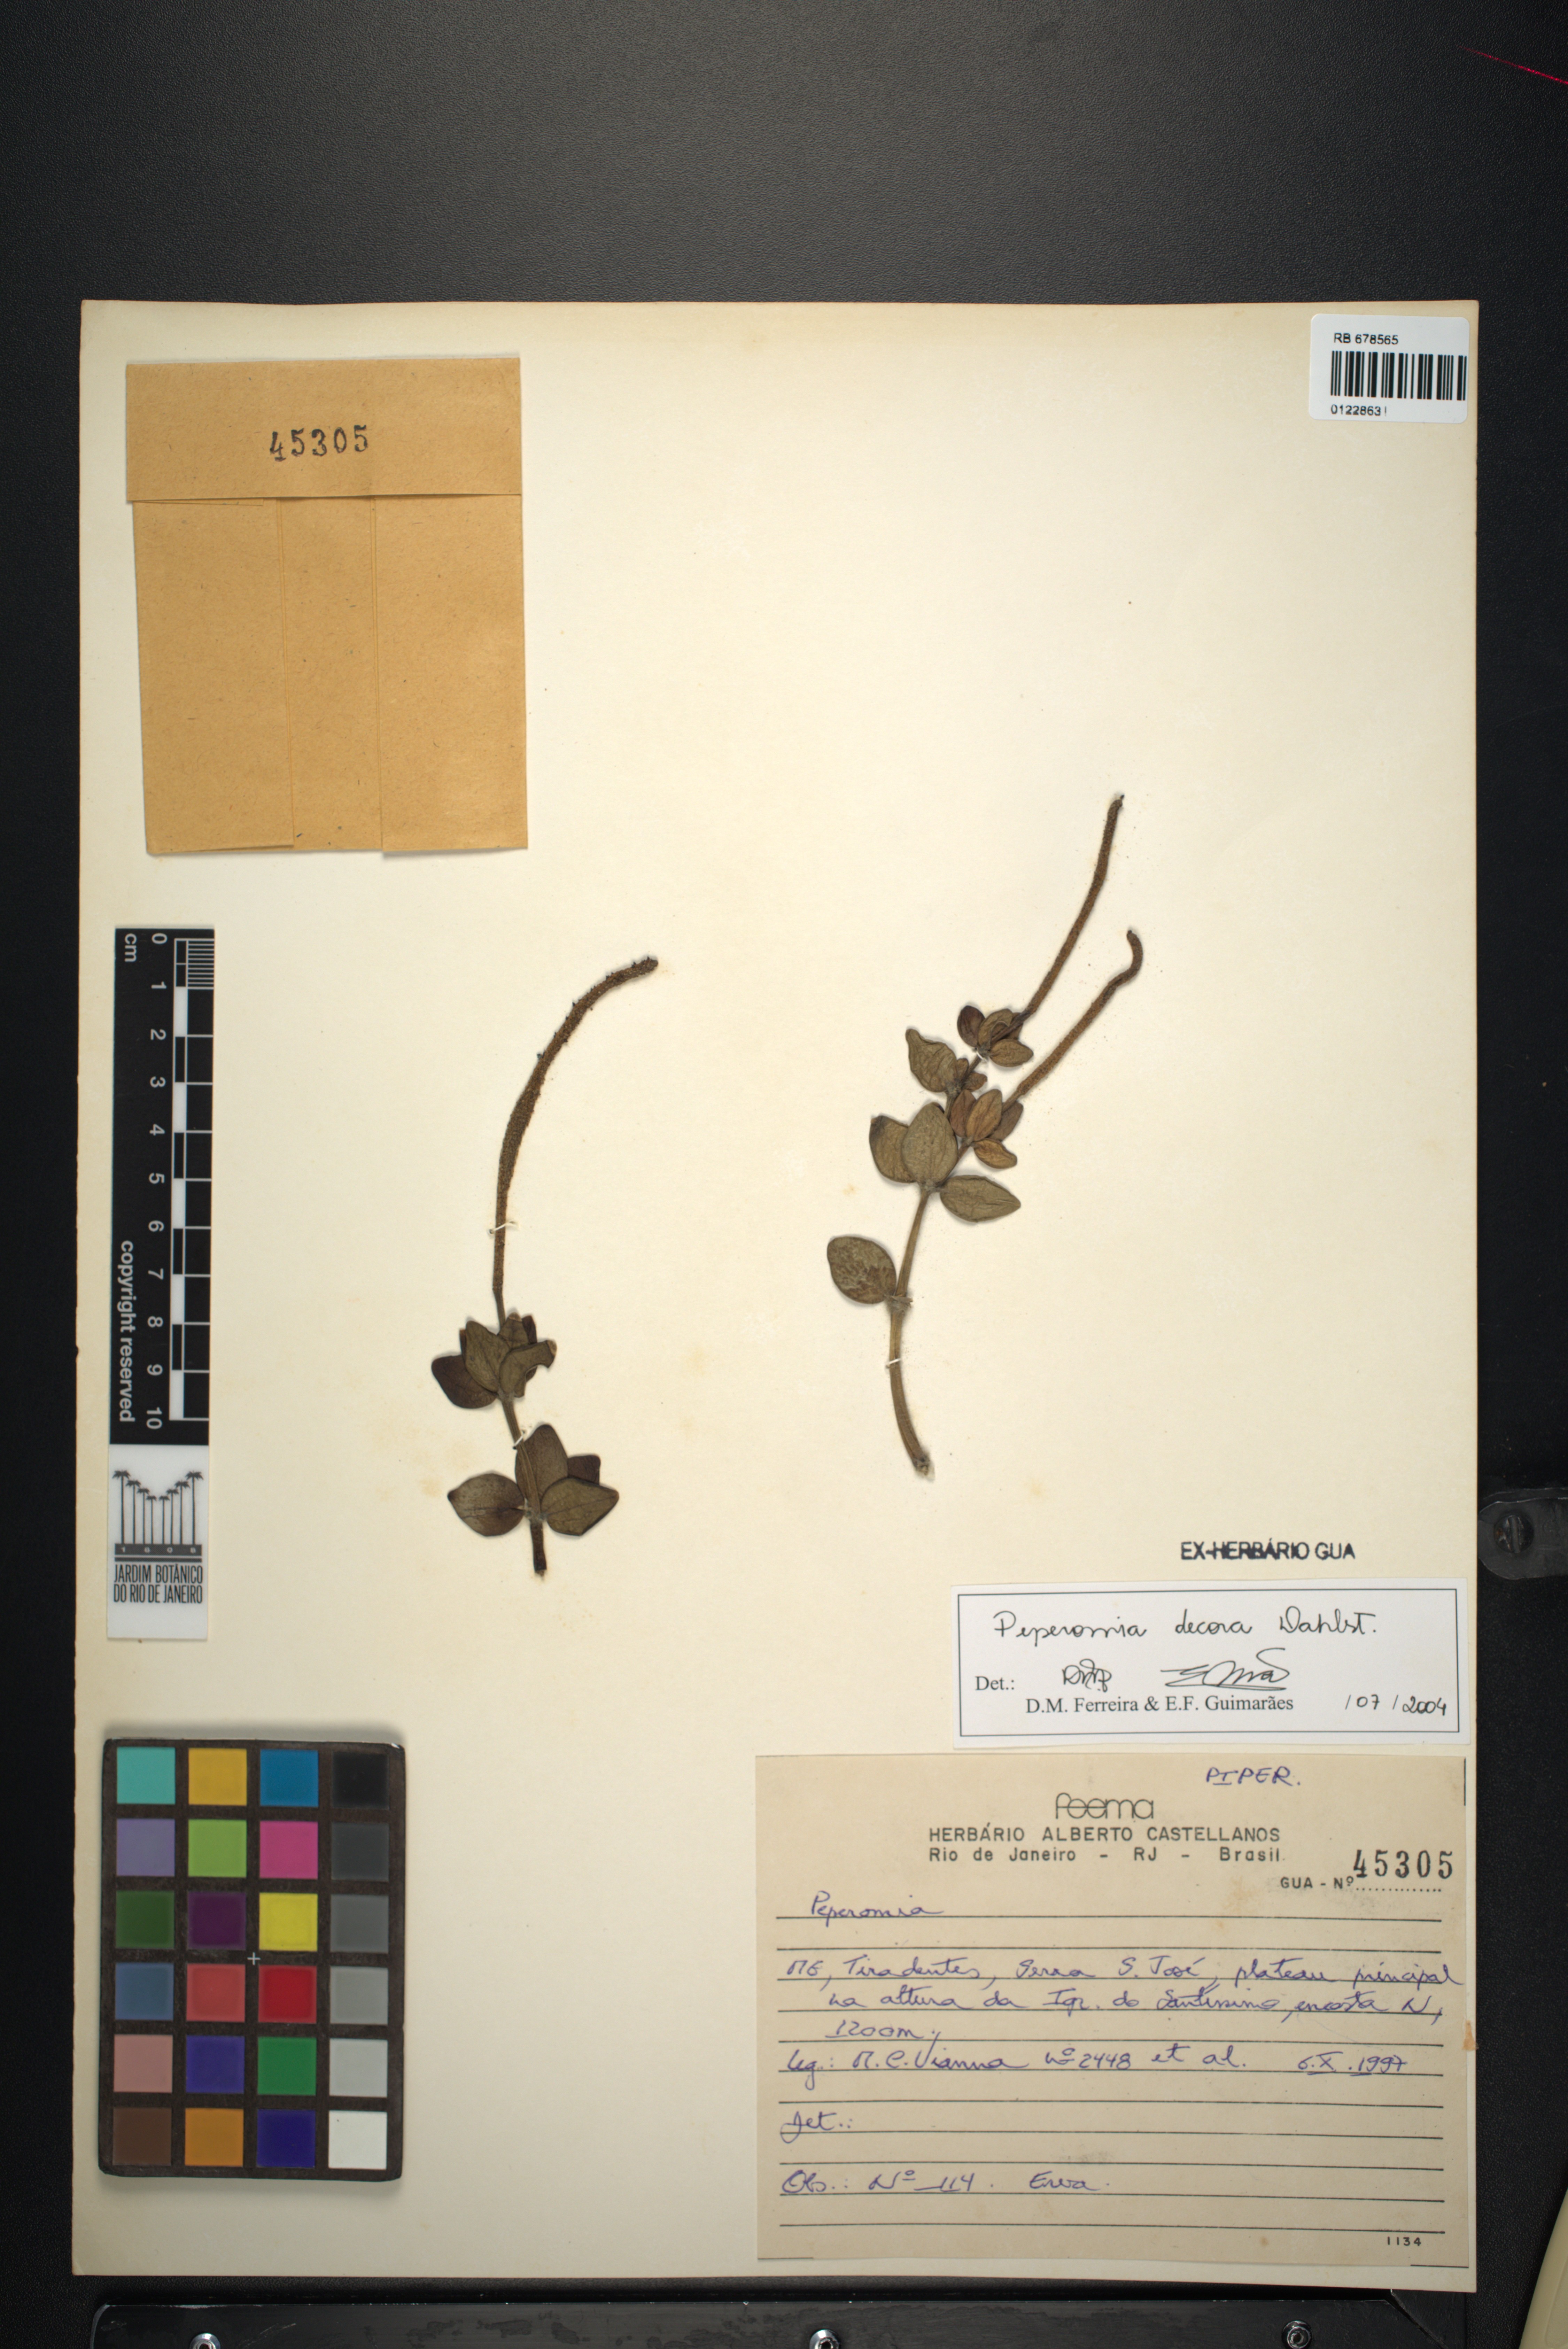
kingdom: Plantae
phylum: Tracheophyta
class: Magnoliopsida
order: Piperales
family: Piperaceae
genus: Peperomia
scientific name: Peperomia decora
